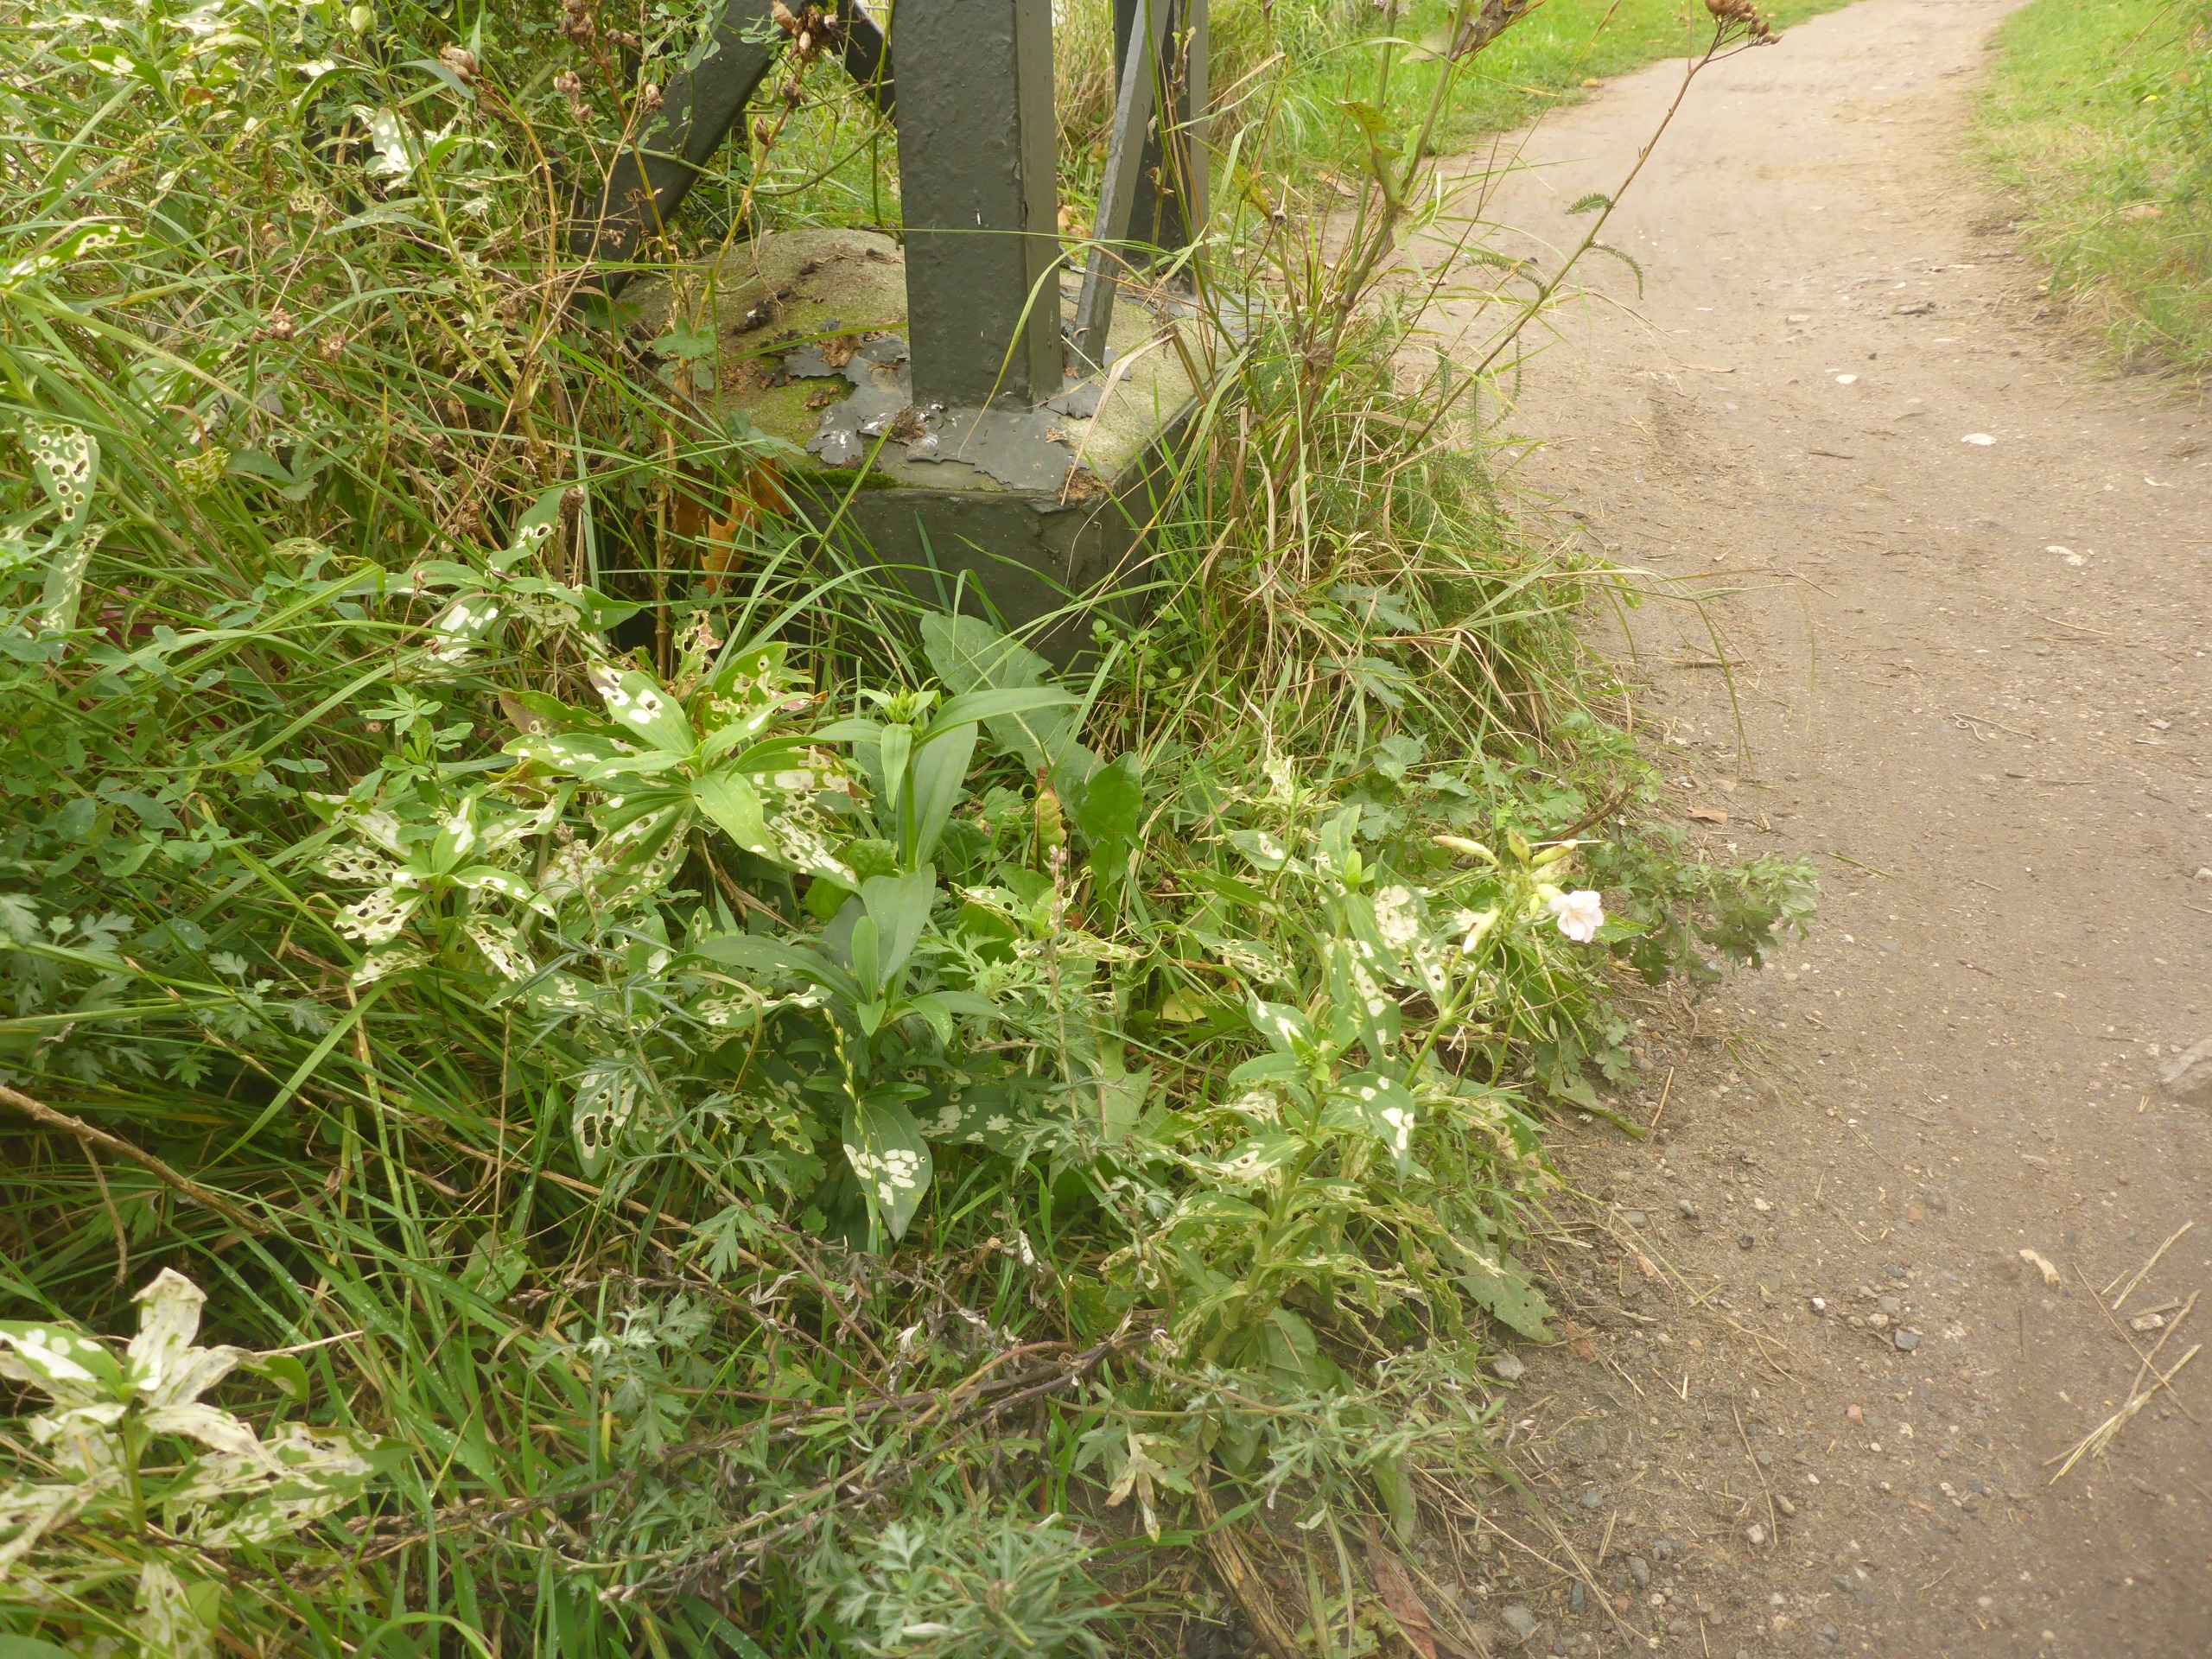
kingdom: Plantae
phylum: Tracheophyta
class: Magnoliopsida
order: Caryophyllales
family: Caryophyllaceae
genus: Saponaria
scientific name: Saponaria officinalis
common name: Sæbeurt
